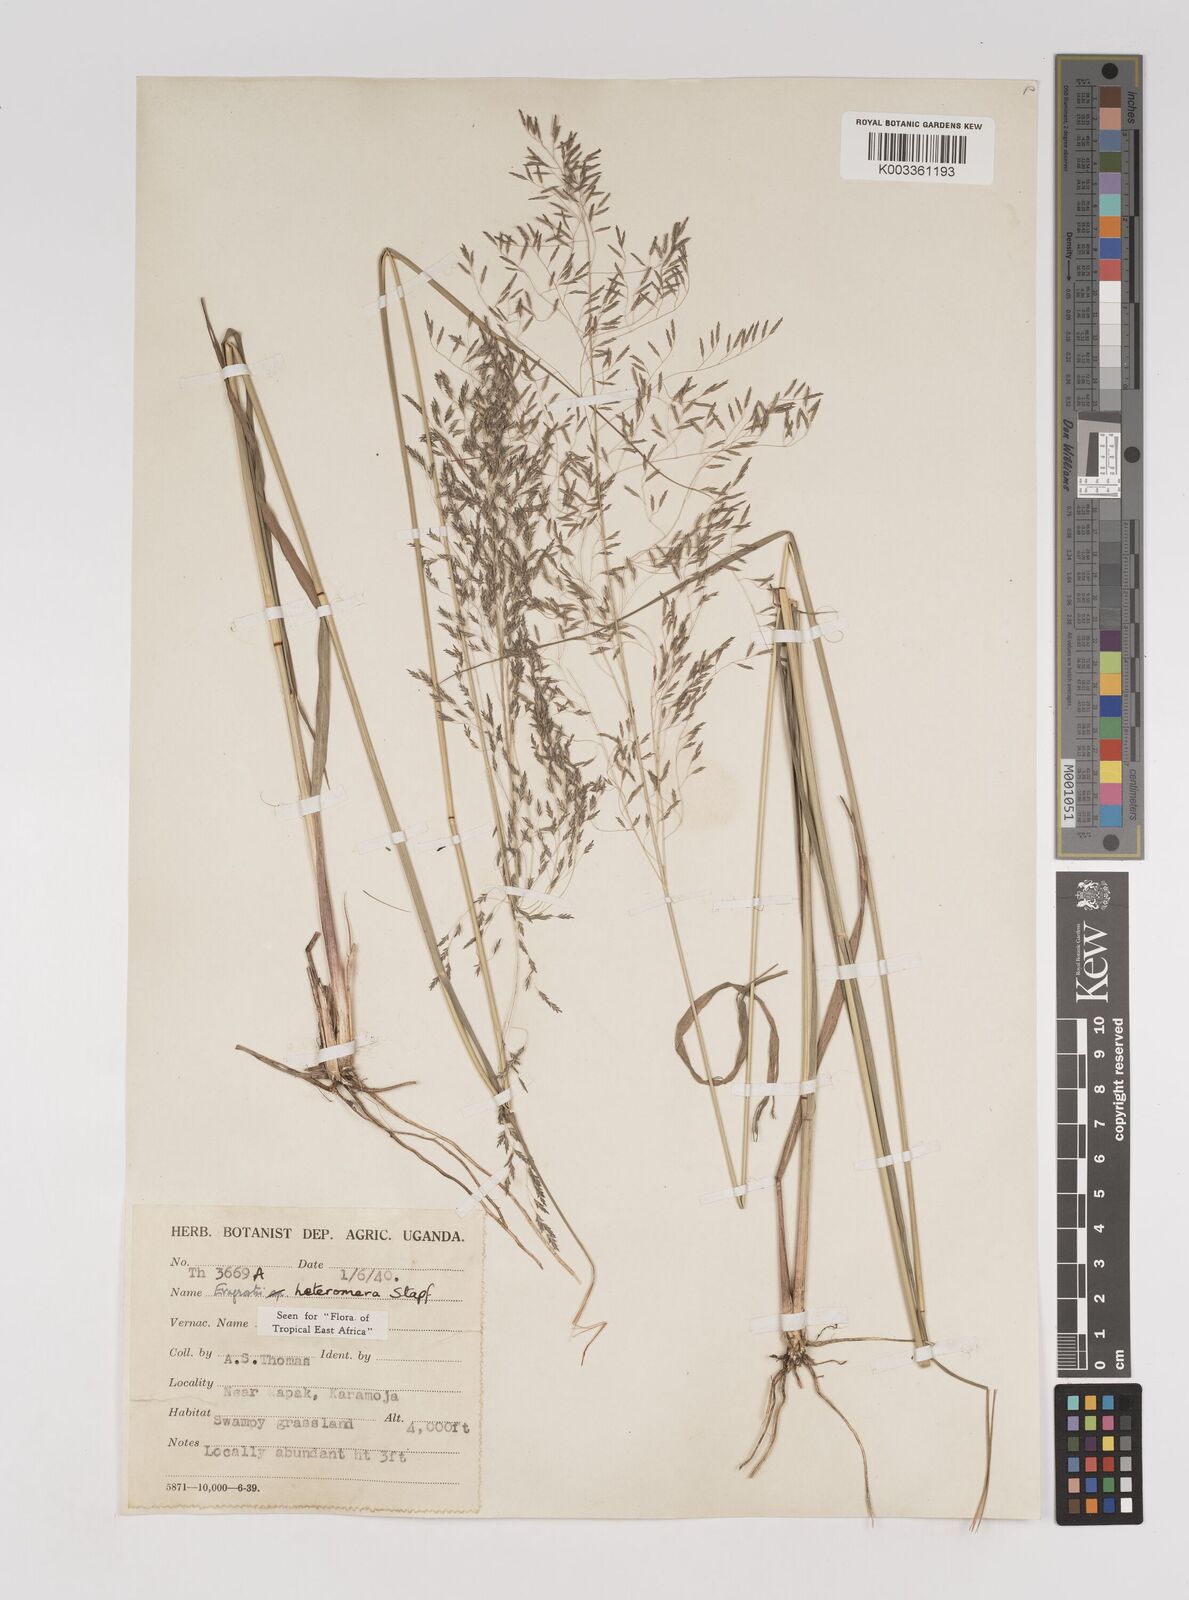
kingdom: Plantae
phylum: Tracheophyta
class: Liliopsida
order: Poales
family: Poaceae
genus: Eragrostis
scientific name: Eragrostis heteromera
